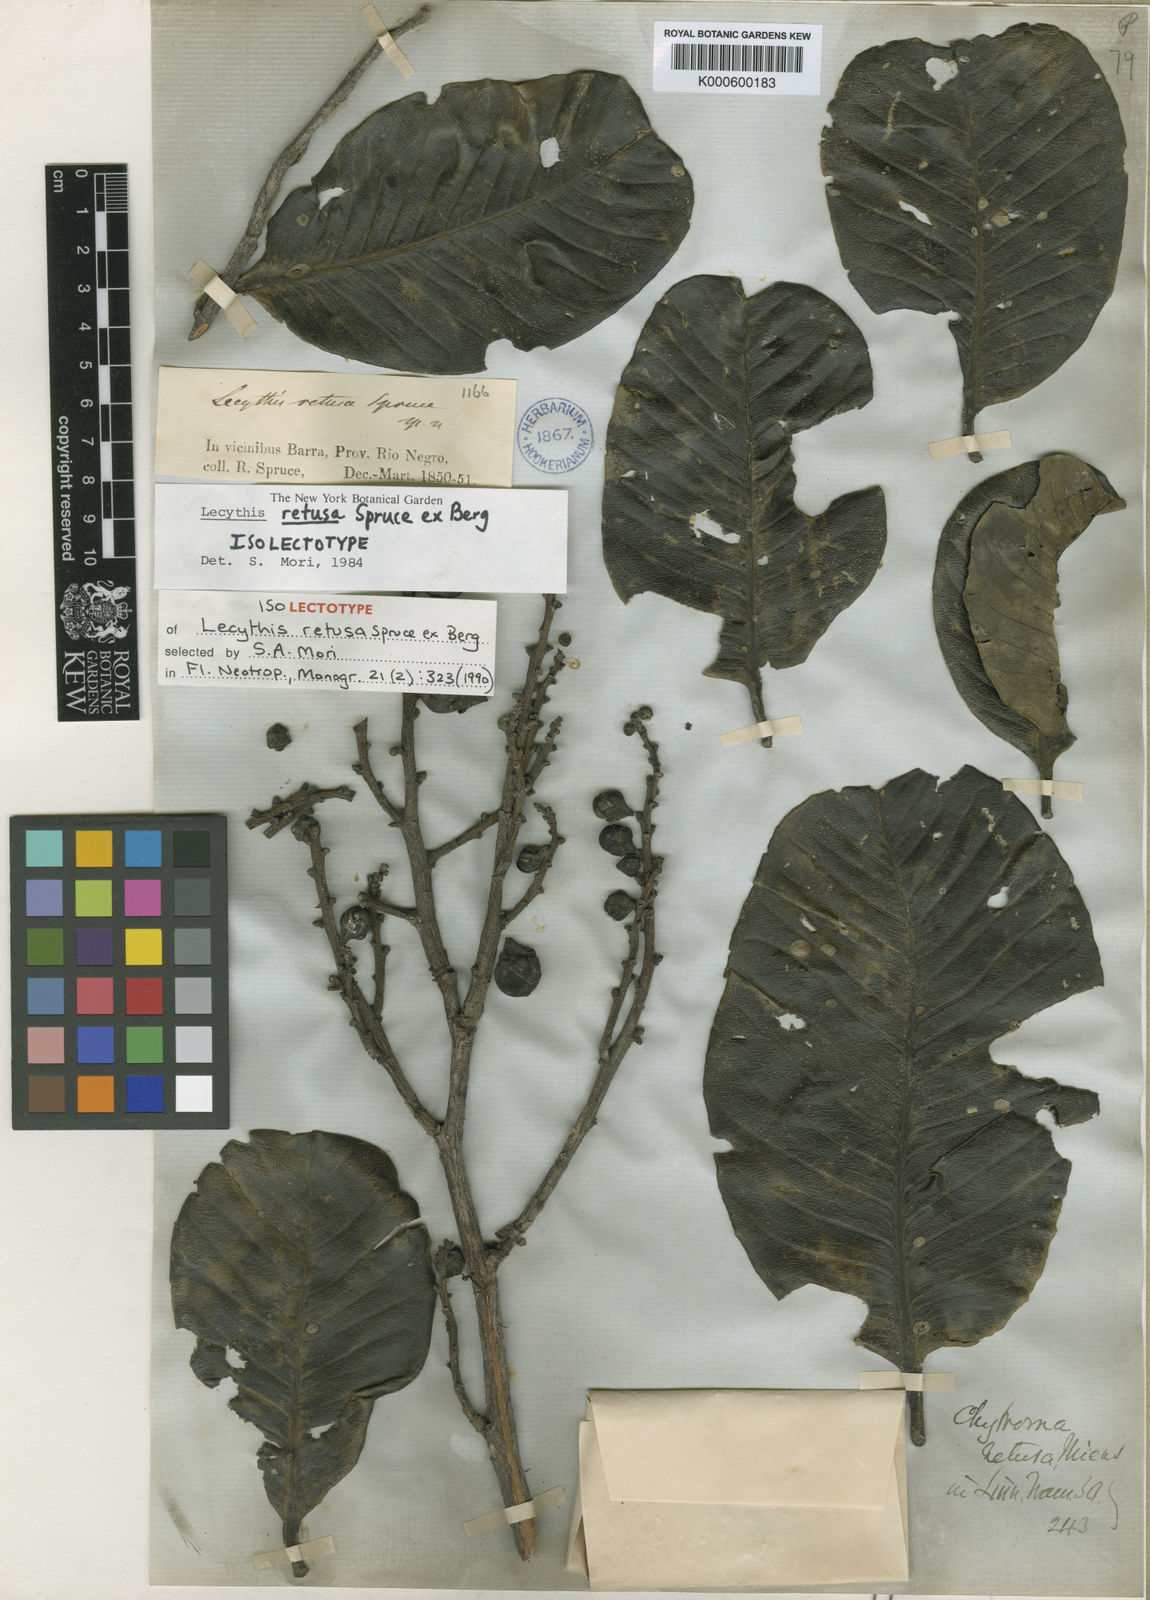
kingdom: Plantae
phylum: Tracheophyta
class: Magnoliopsida
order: Ericales
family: Lecythidaceae
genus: Lecythis
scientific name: Lecythis retusa
